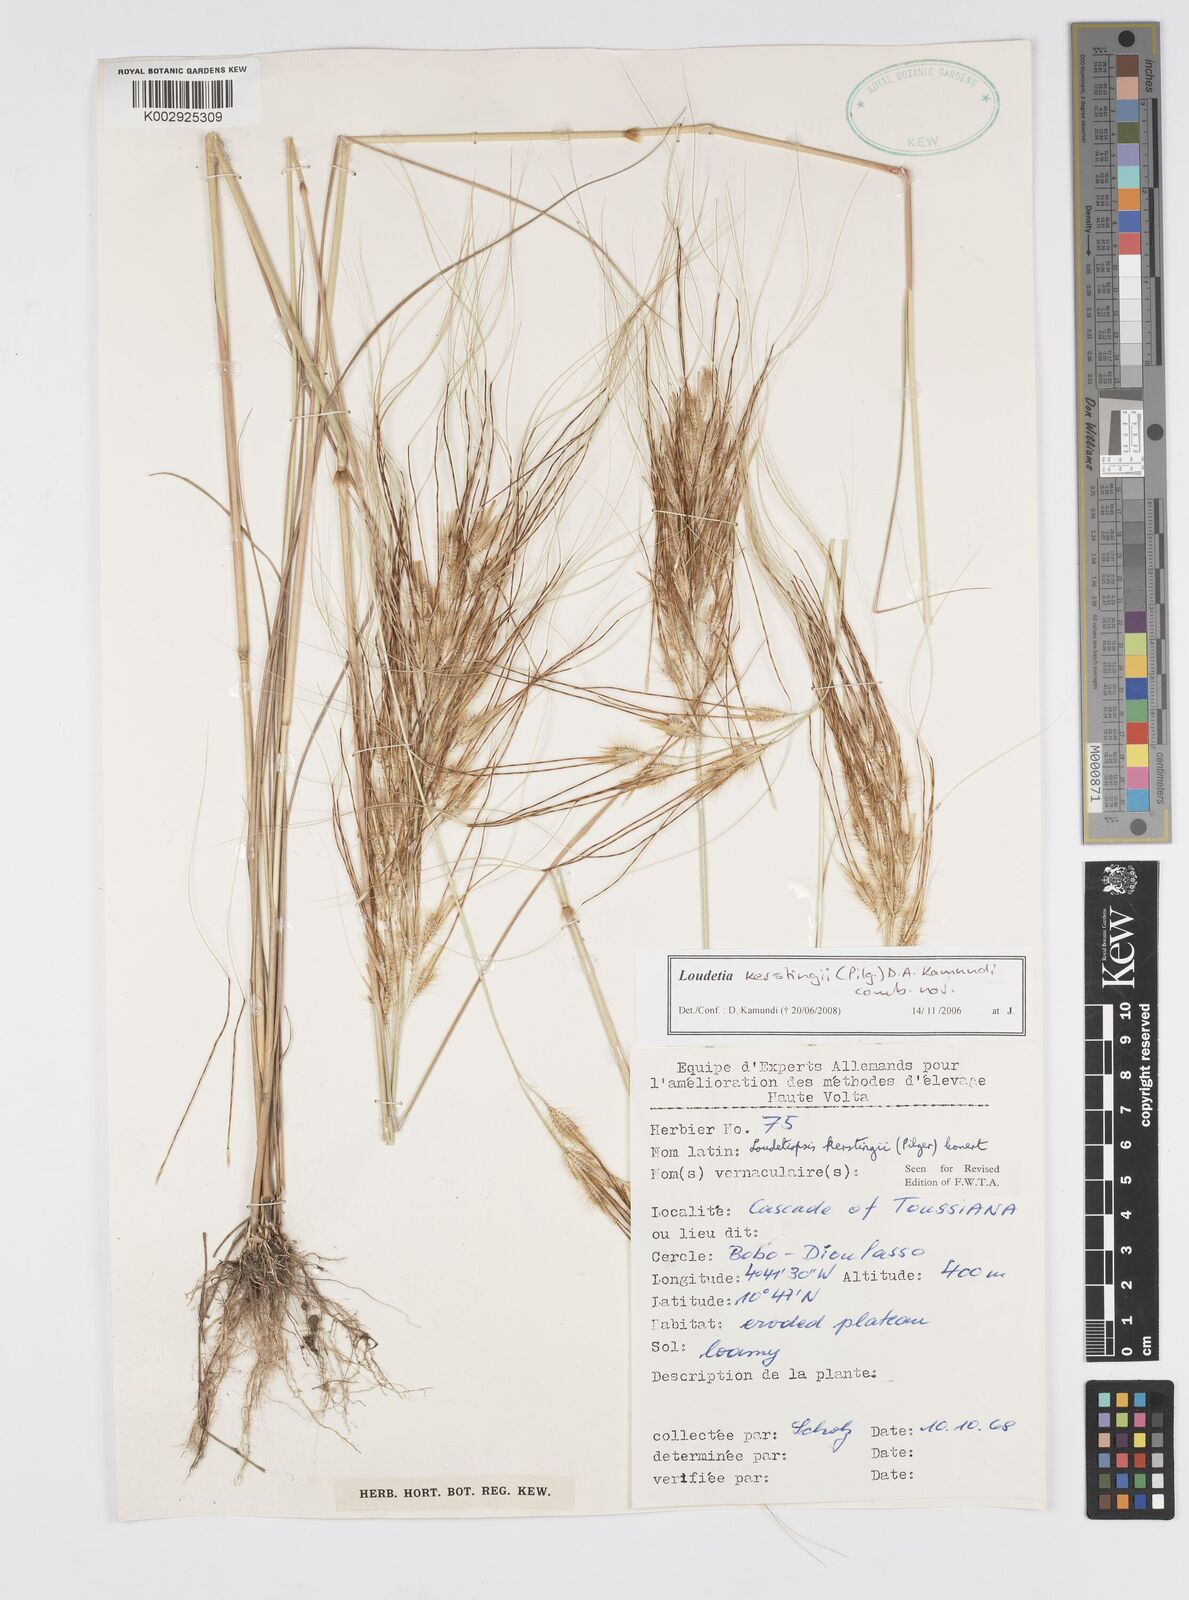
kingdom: Plantae
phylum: Tracheophyta
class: Liliopsida
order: Poales
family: Poaceae
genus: Loudetiopsis
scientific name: Loudetiopsis kerstingii
